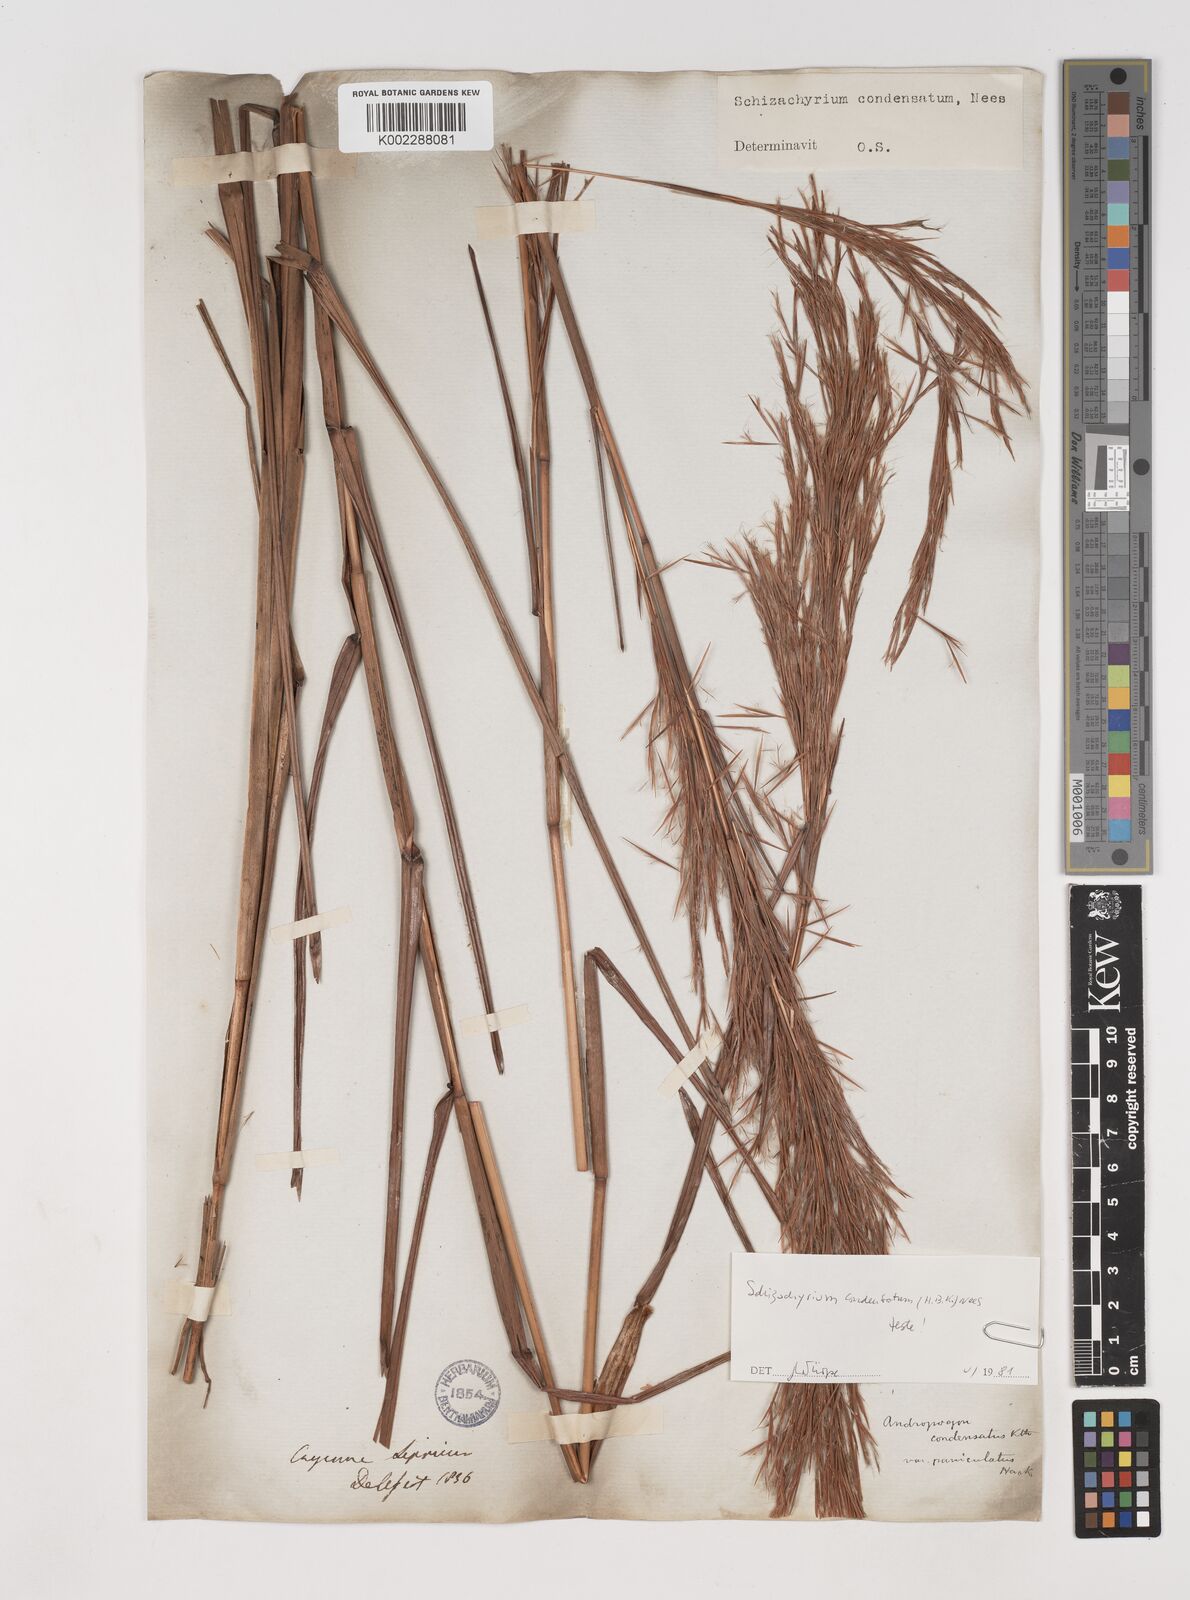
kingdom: Plantae
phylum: Tracheophyta
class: Liliopsida
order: Poales
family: Poaceae
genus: Schizachyrium
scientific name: Schizachyrium condensatum
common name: Bush beardgrass
